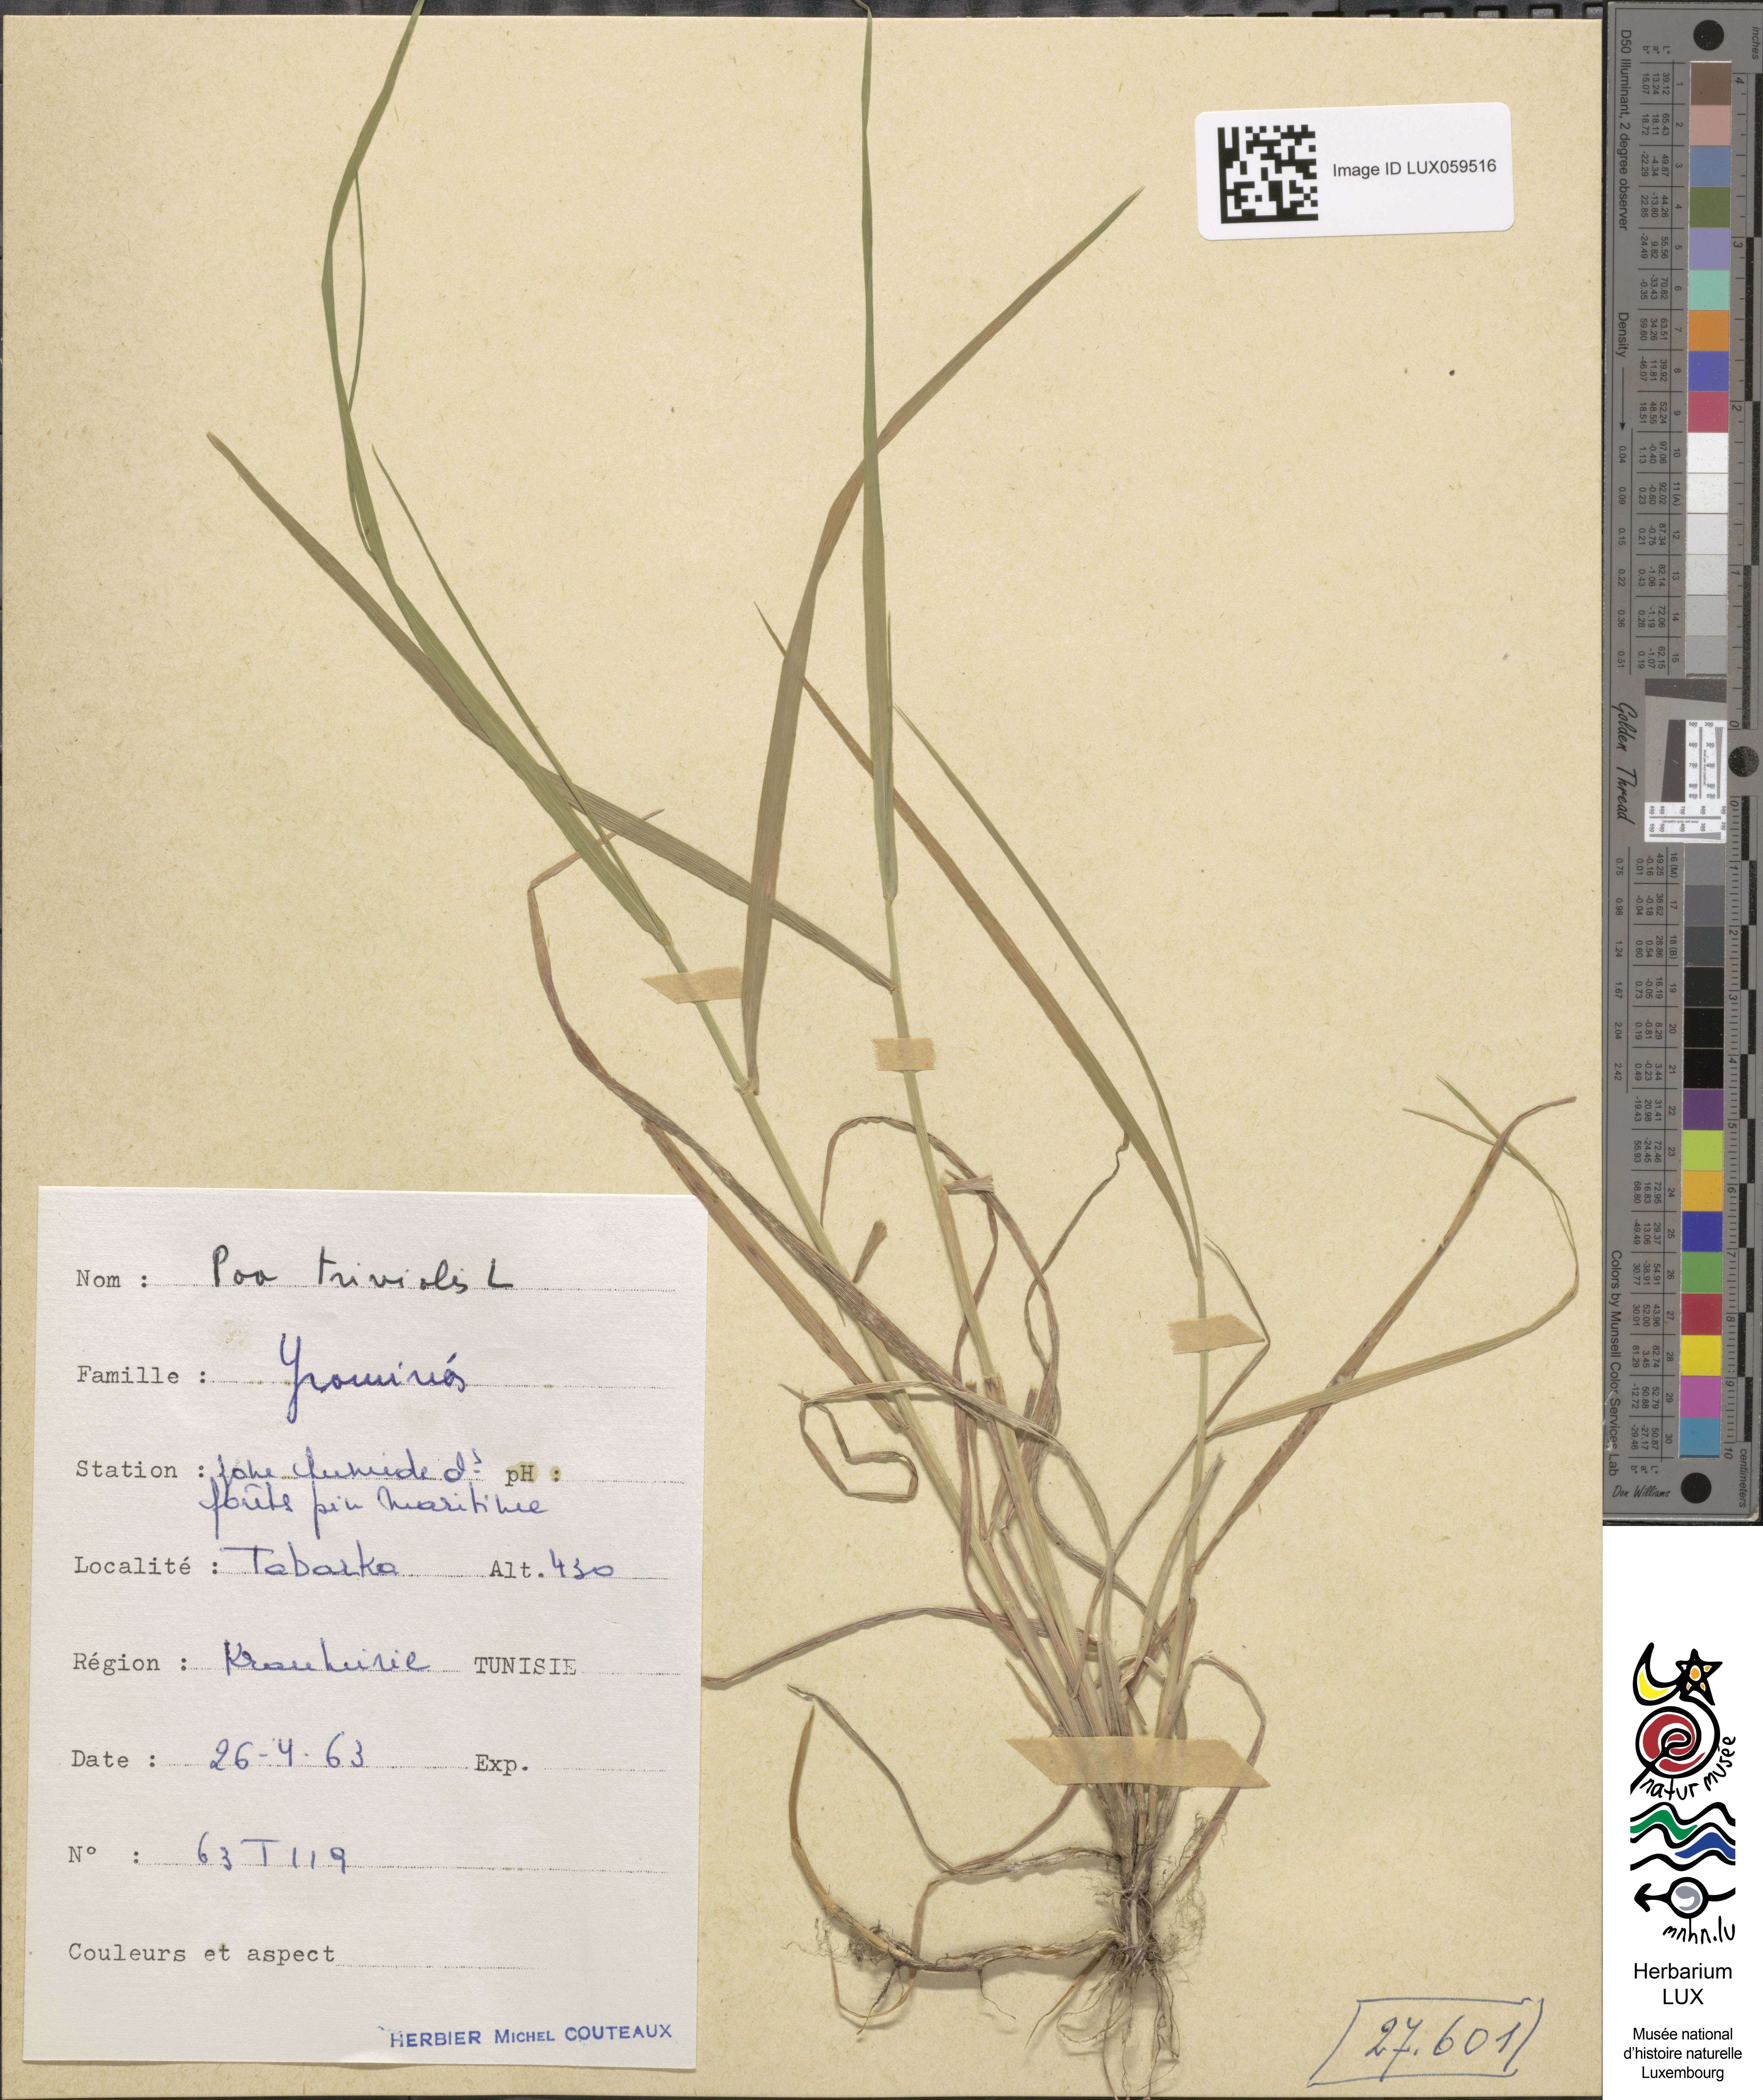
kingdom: Plantae
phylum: Tracheophyta
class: Liliopsida
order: Poales
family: Poaceae
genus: Poa
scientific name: Poa trivialis
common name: Rough bluegrass
